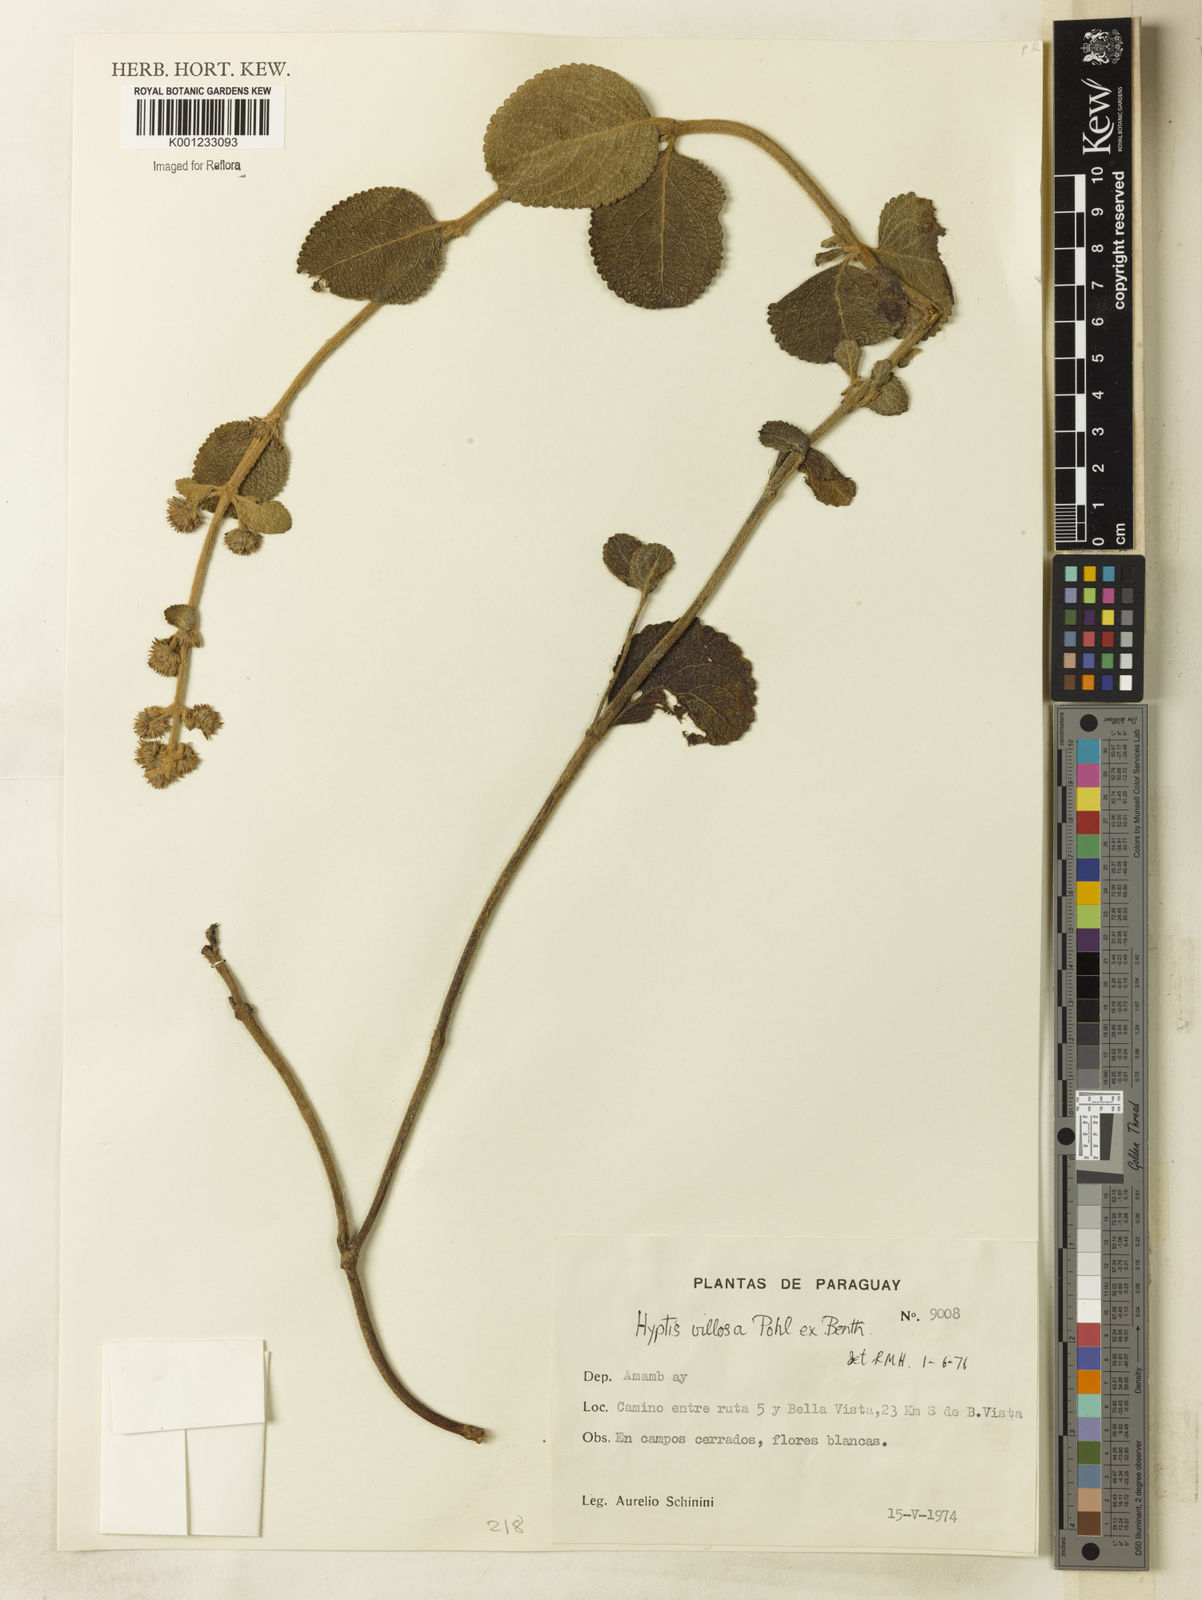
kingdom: Plantae
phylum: Tracheophyta
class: Magnoliopsida
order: Lamiales
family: Lamiaceae
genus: Hyptis
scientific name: Hyptis villosa
